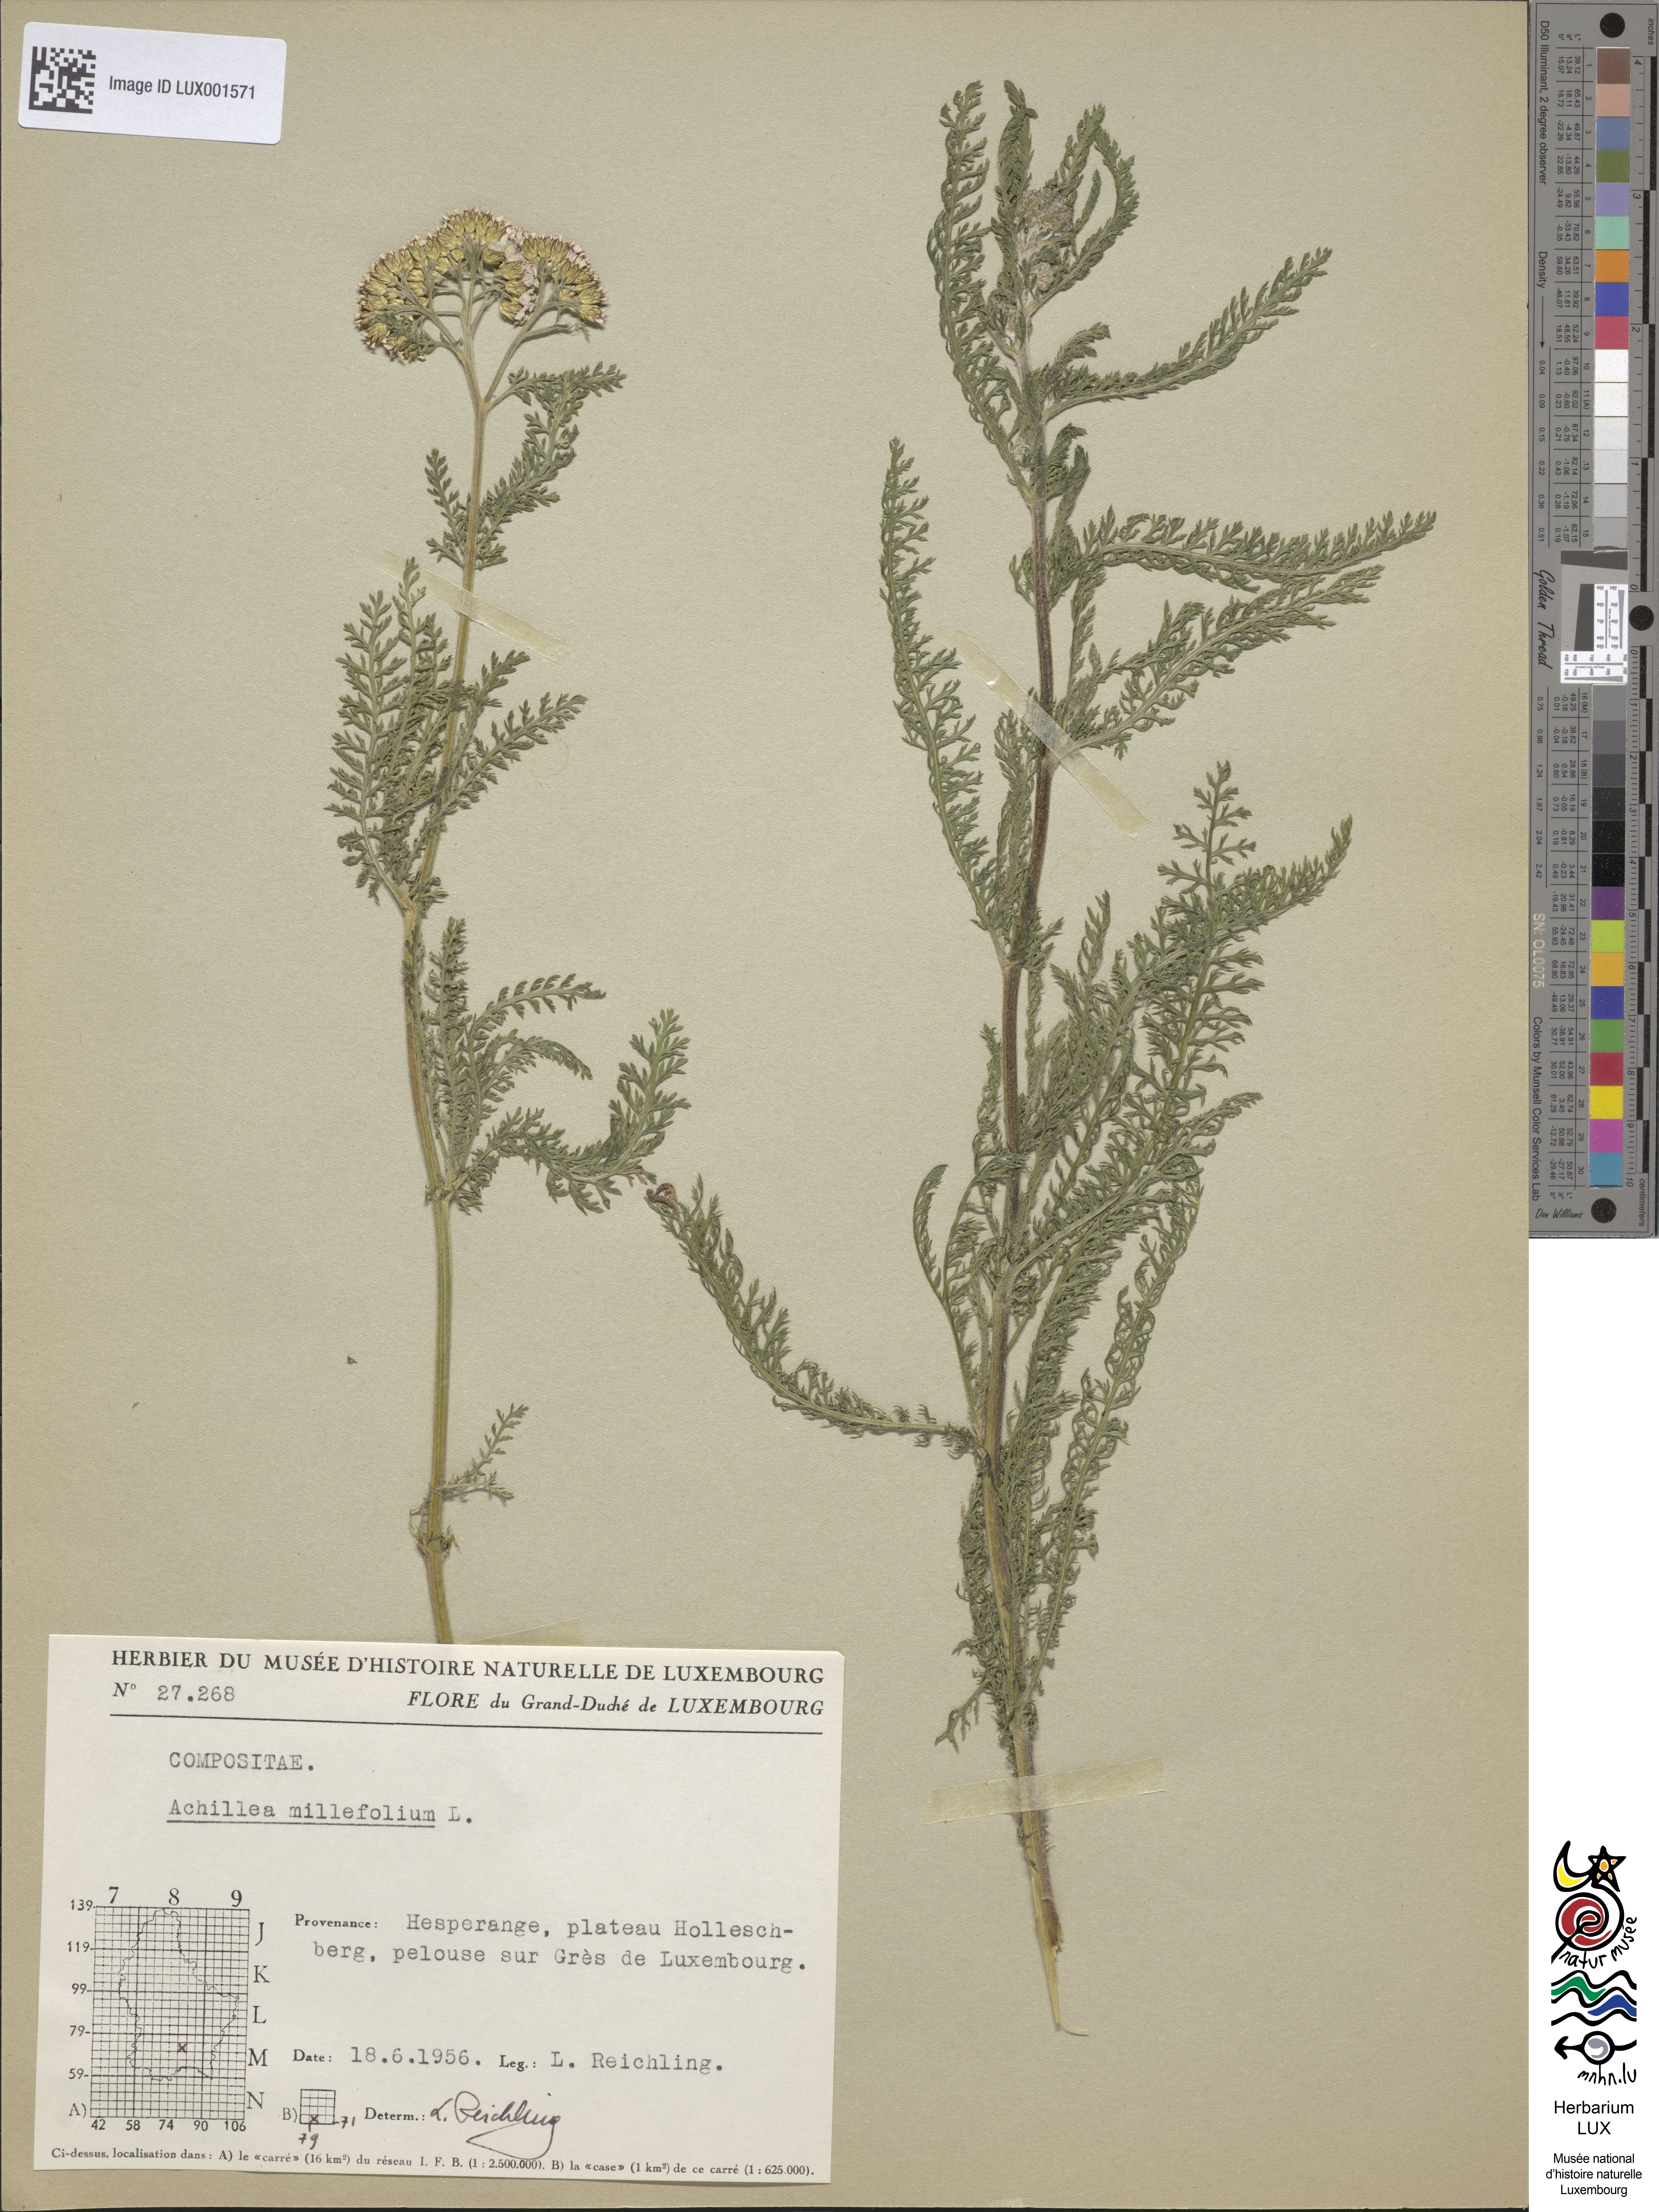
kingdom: Plantae
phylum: Tracheophyta
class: Magnoliopsida
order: Asterales
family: Asteraceae
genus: Achillea
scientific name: Achillea millefolium
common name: Yarrow
